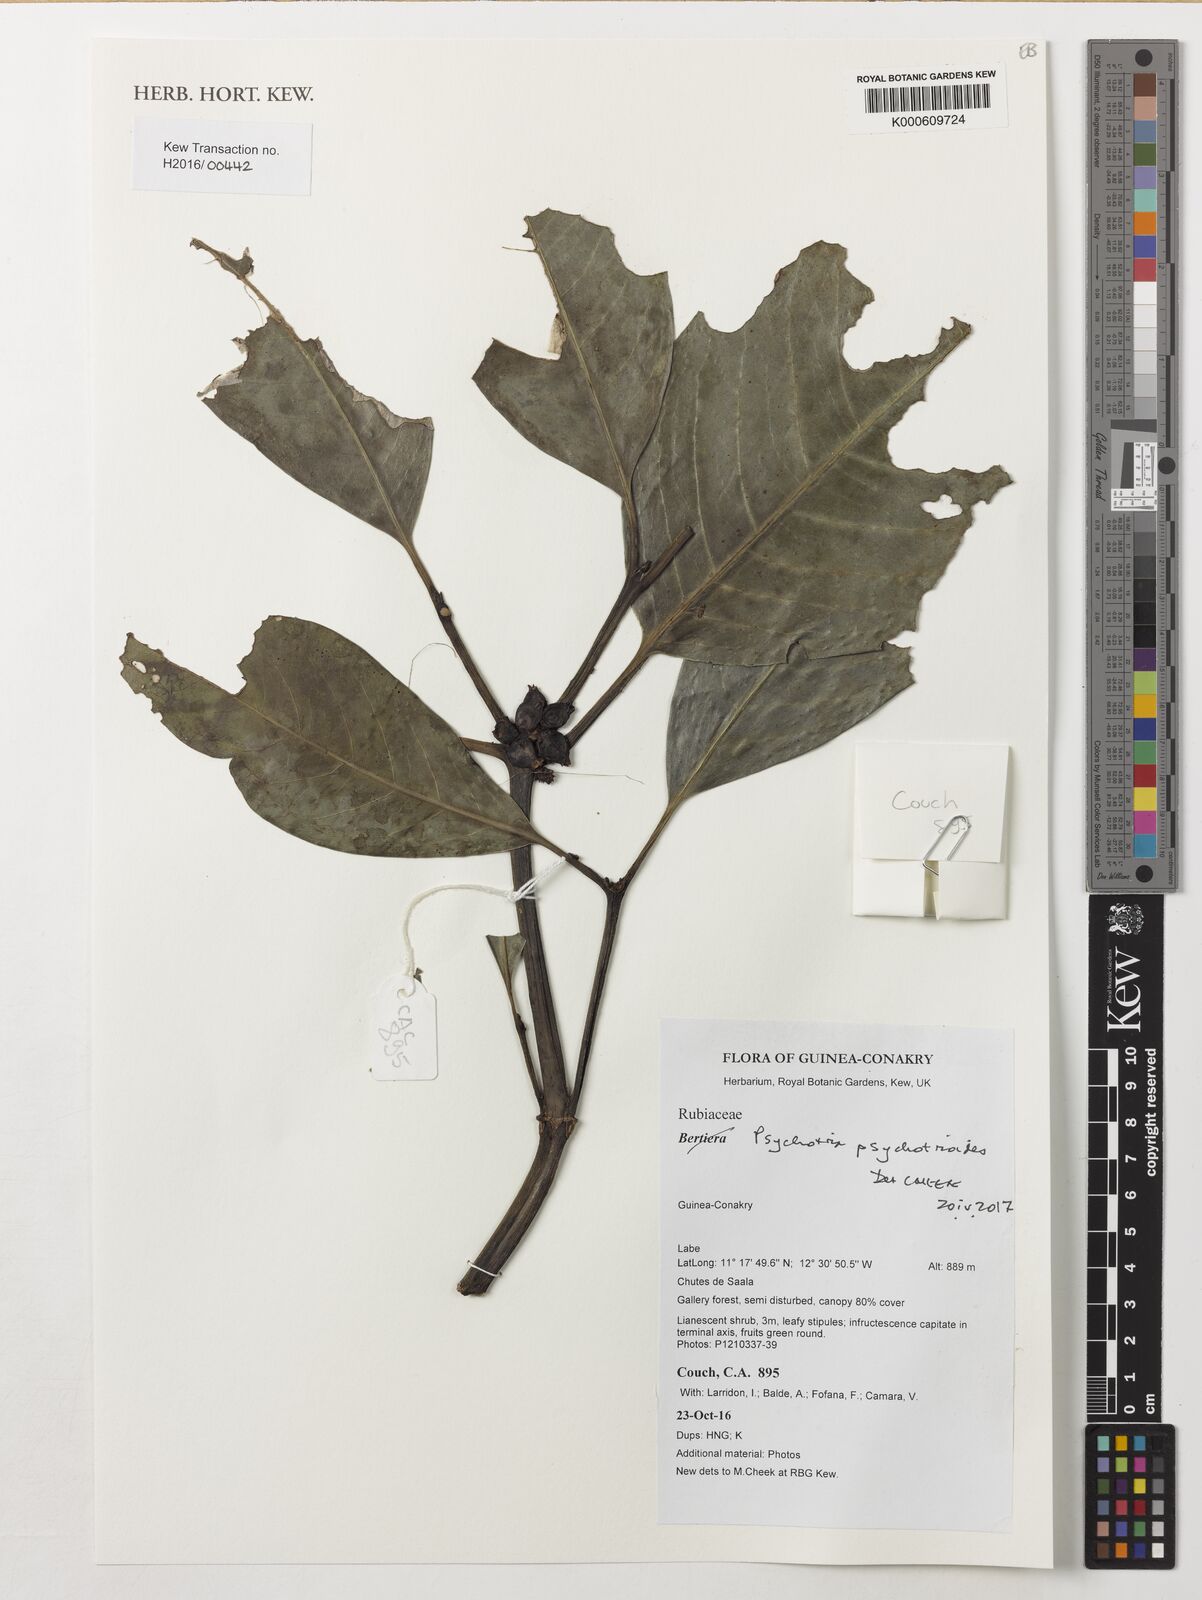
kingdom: Plantae
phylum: Tracheophyta
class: Magnoliopsida
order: Gentianales
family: Rubiaceae
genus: Psychotria
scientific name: Psychotria rufipilis
